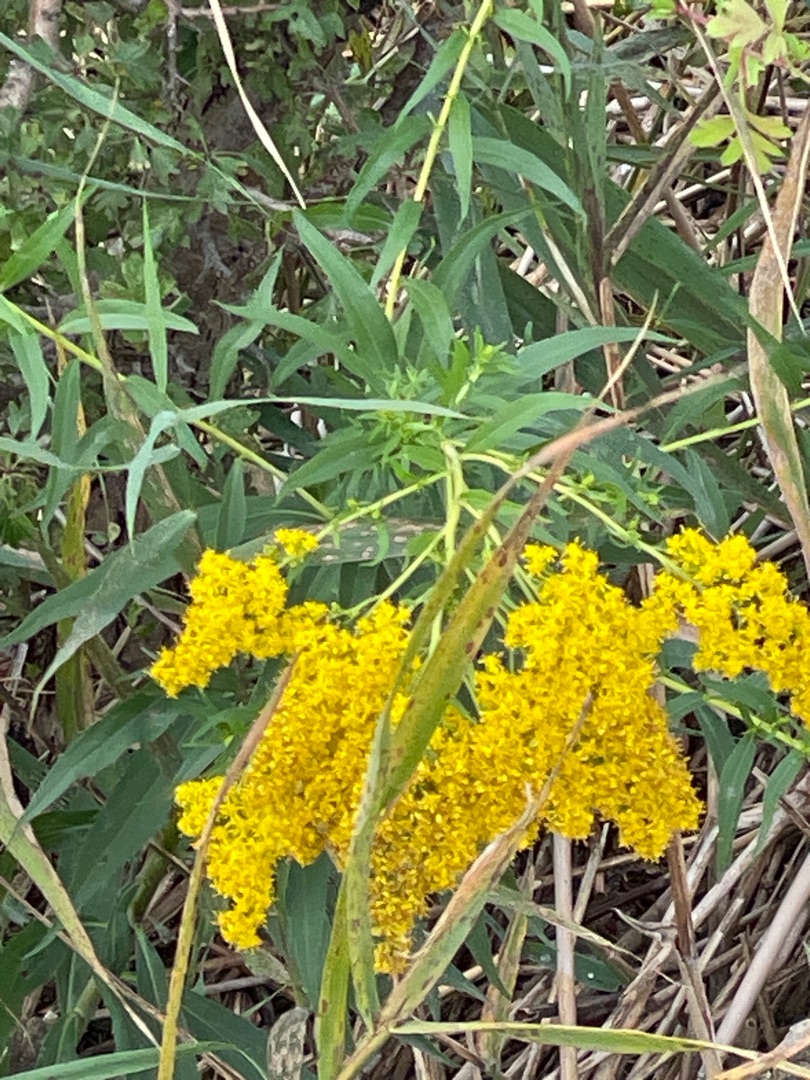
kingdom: Plantae
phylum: Tracheophyta
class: Magnoliopsida
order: Asterales
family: Asteraceae
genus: Solidago
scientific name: Solidago gigantea
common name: Sildig gyldenris
